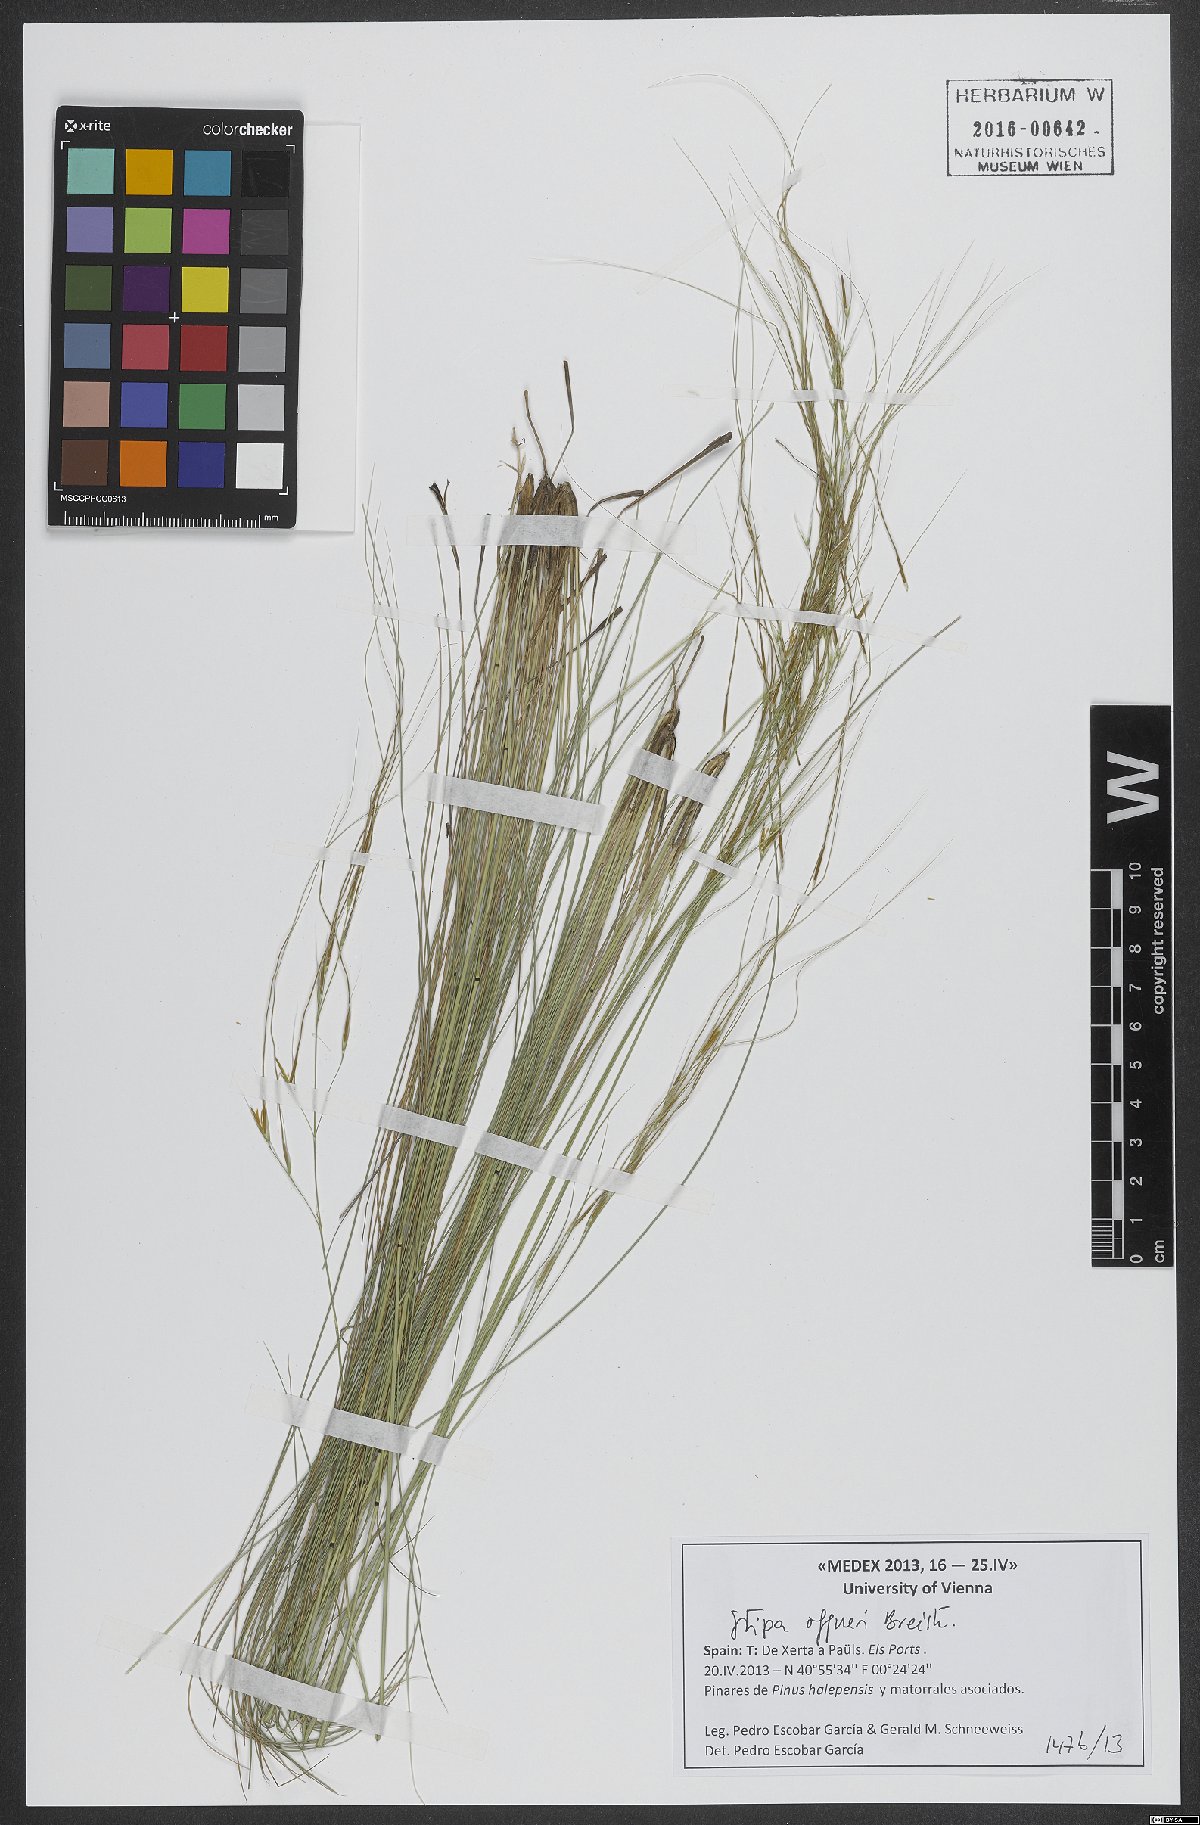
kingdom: Plantae
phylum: Tracheophyta
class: Liliopsida
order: Poales
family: Poaceae
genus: Stipa
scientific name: Stipa offneri
